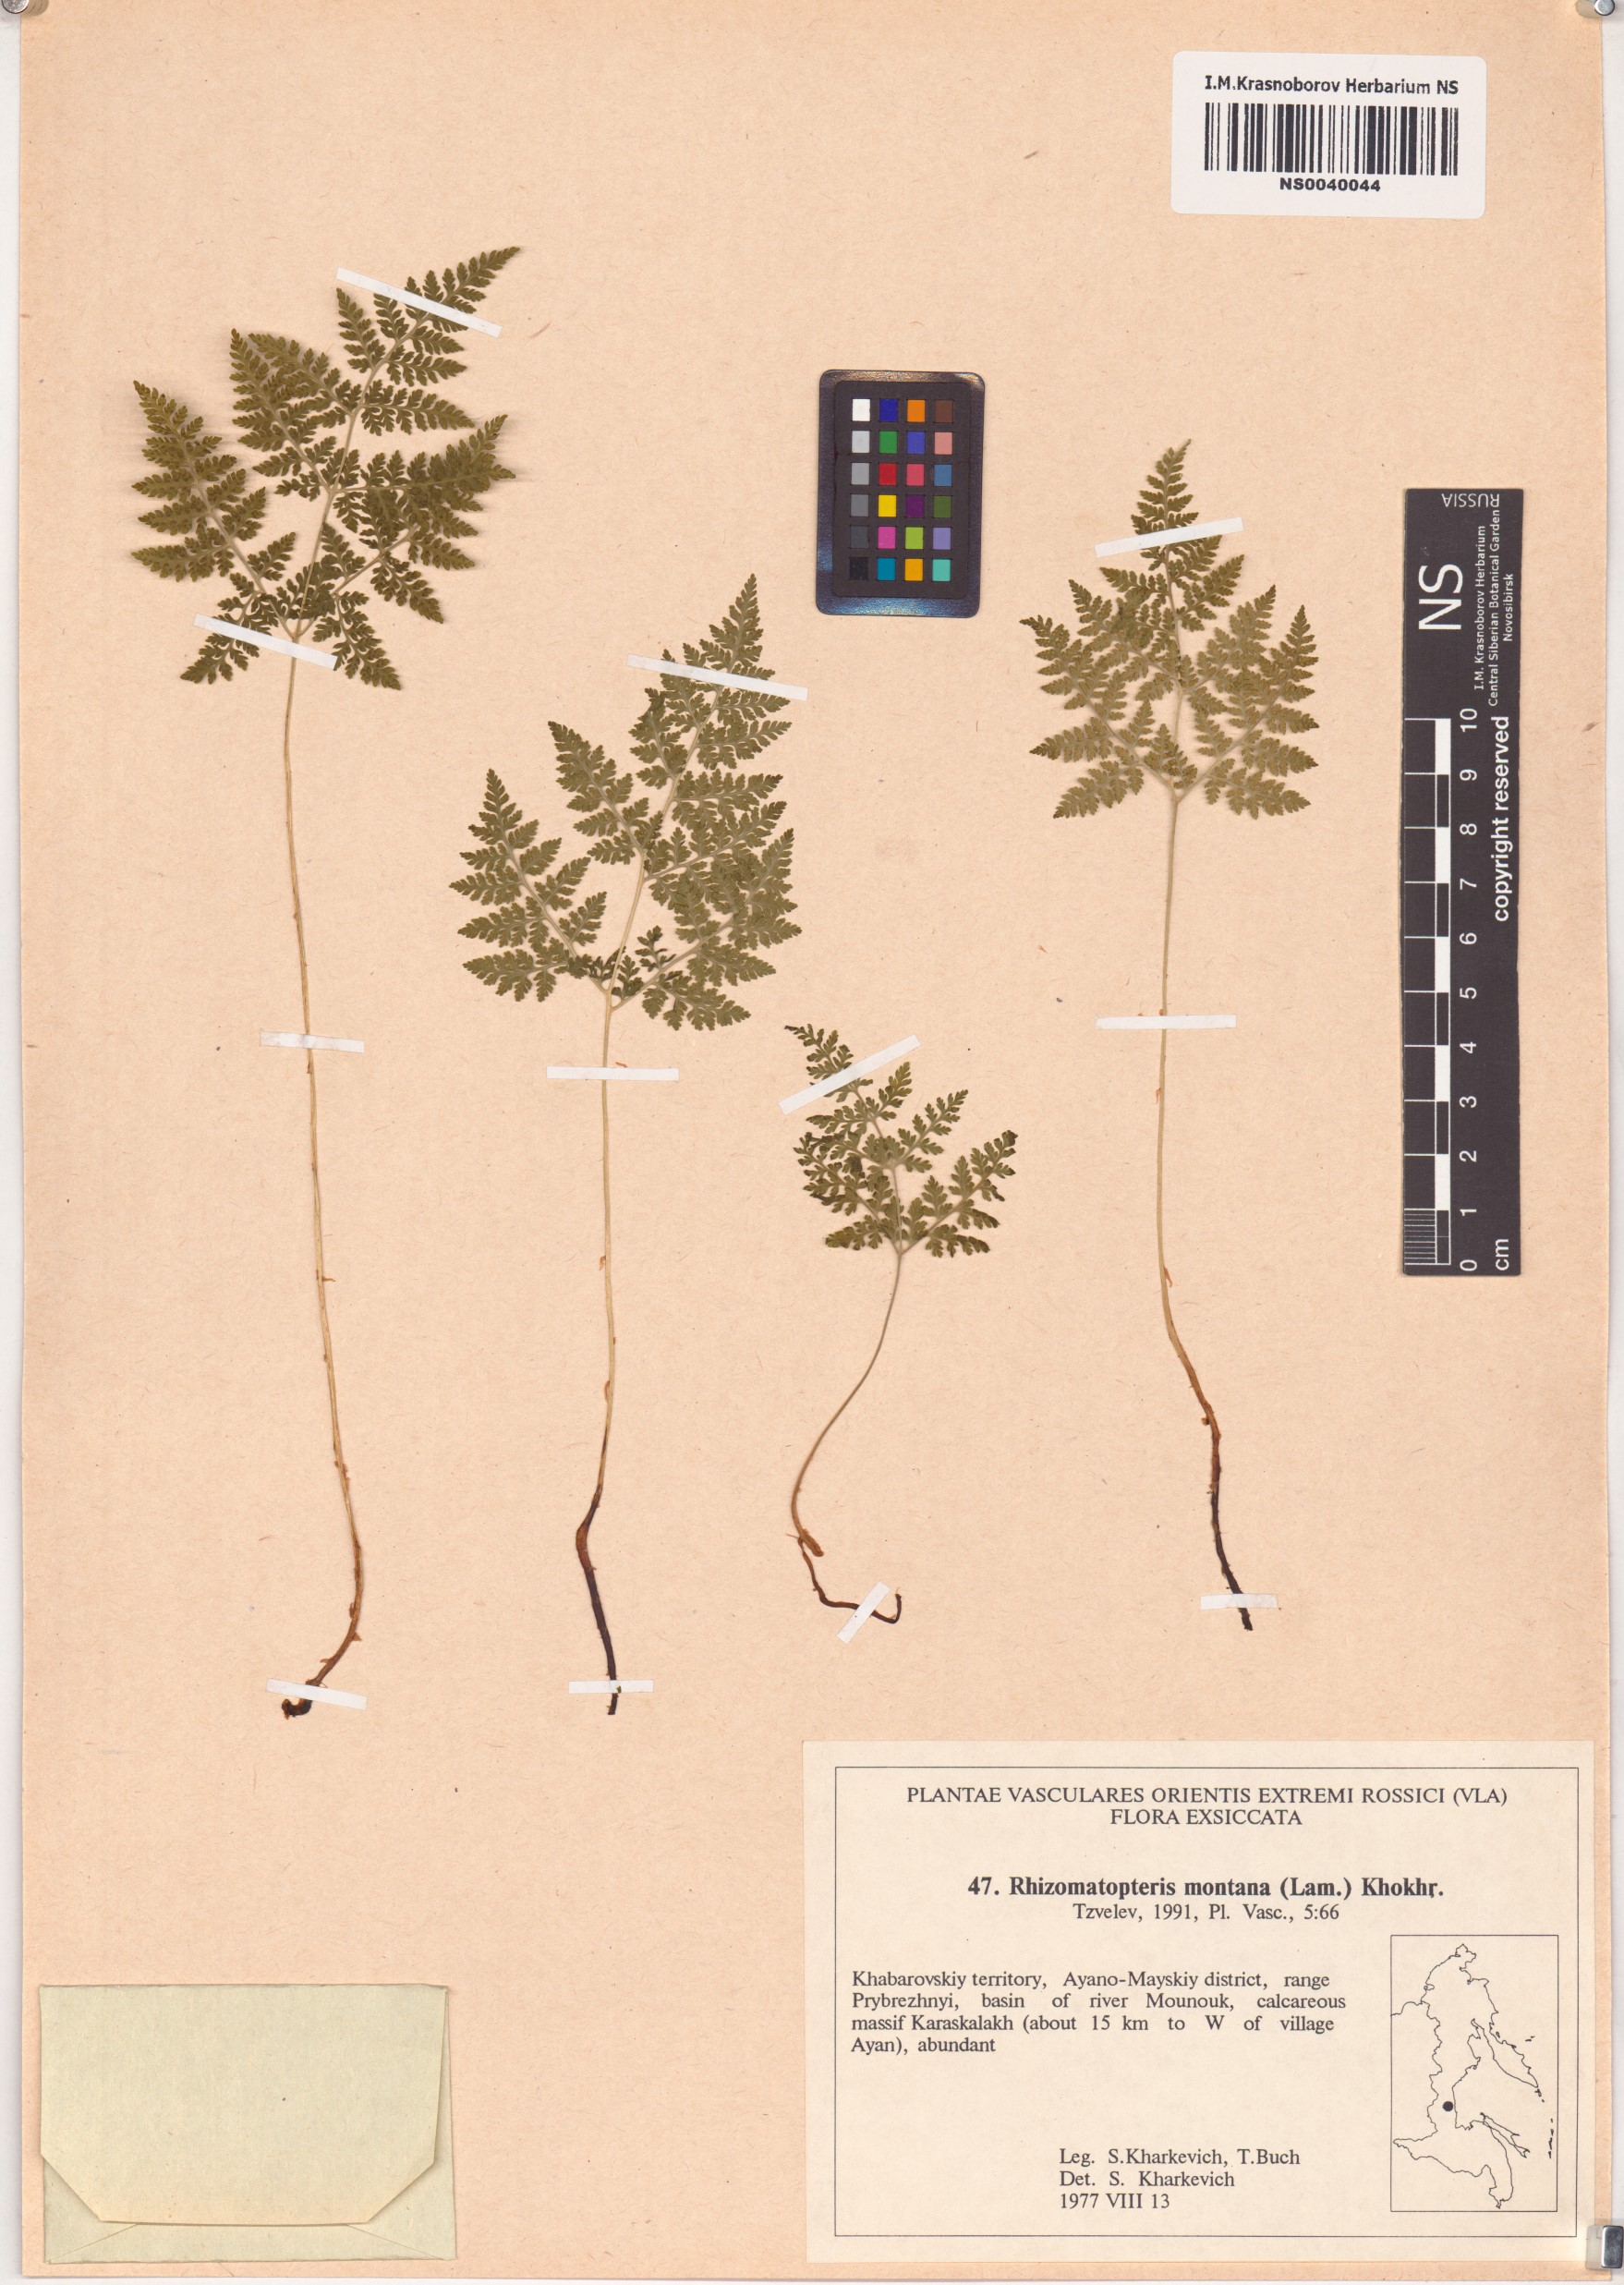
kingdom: Plantae
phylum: Tracheophyta
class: Polypodiopsida
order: Polypodiales
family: Cystopteridaceae
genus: Cystopteris
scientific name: Cystopteris montana
